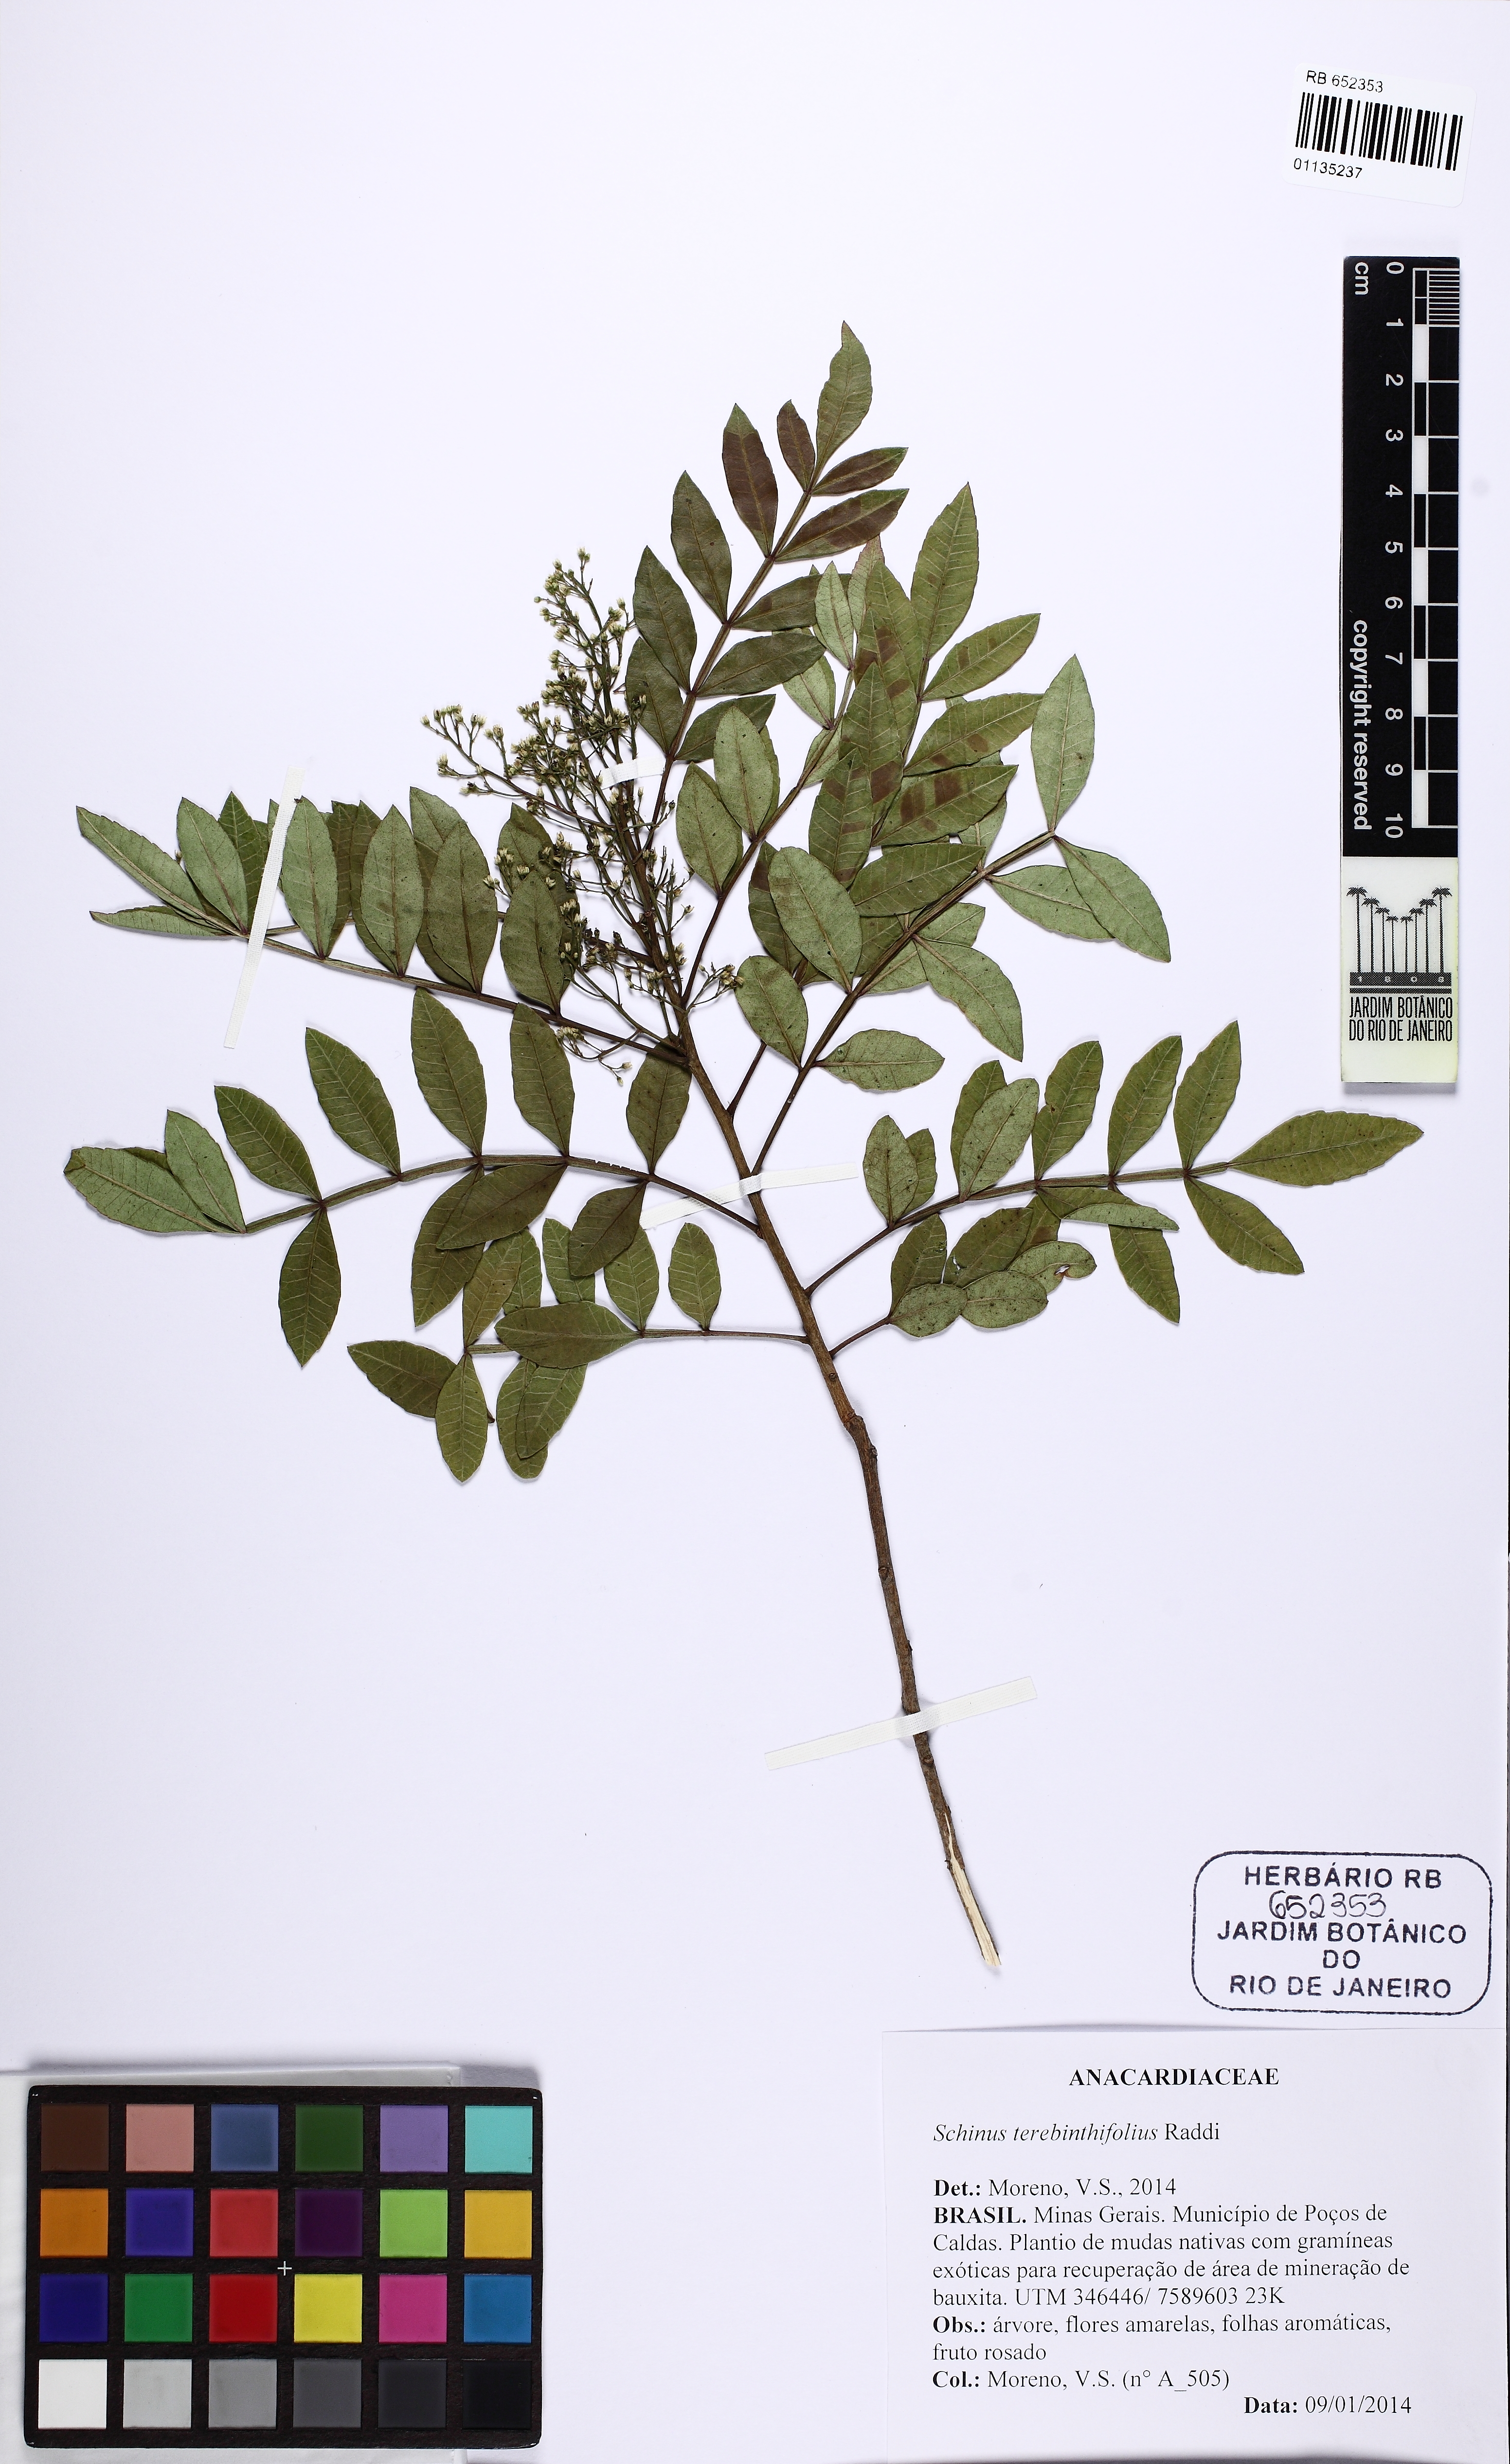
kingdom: Plantae
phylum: Tracheophyta
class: Magnoliopsida
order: Sapindales
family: Anacardiaceae
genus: Schinus
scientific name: Schinus terebinthifolia
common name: Brazilian peppertree
